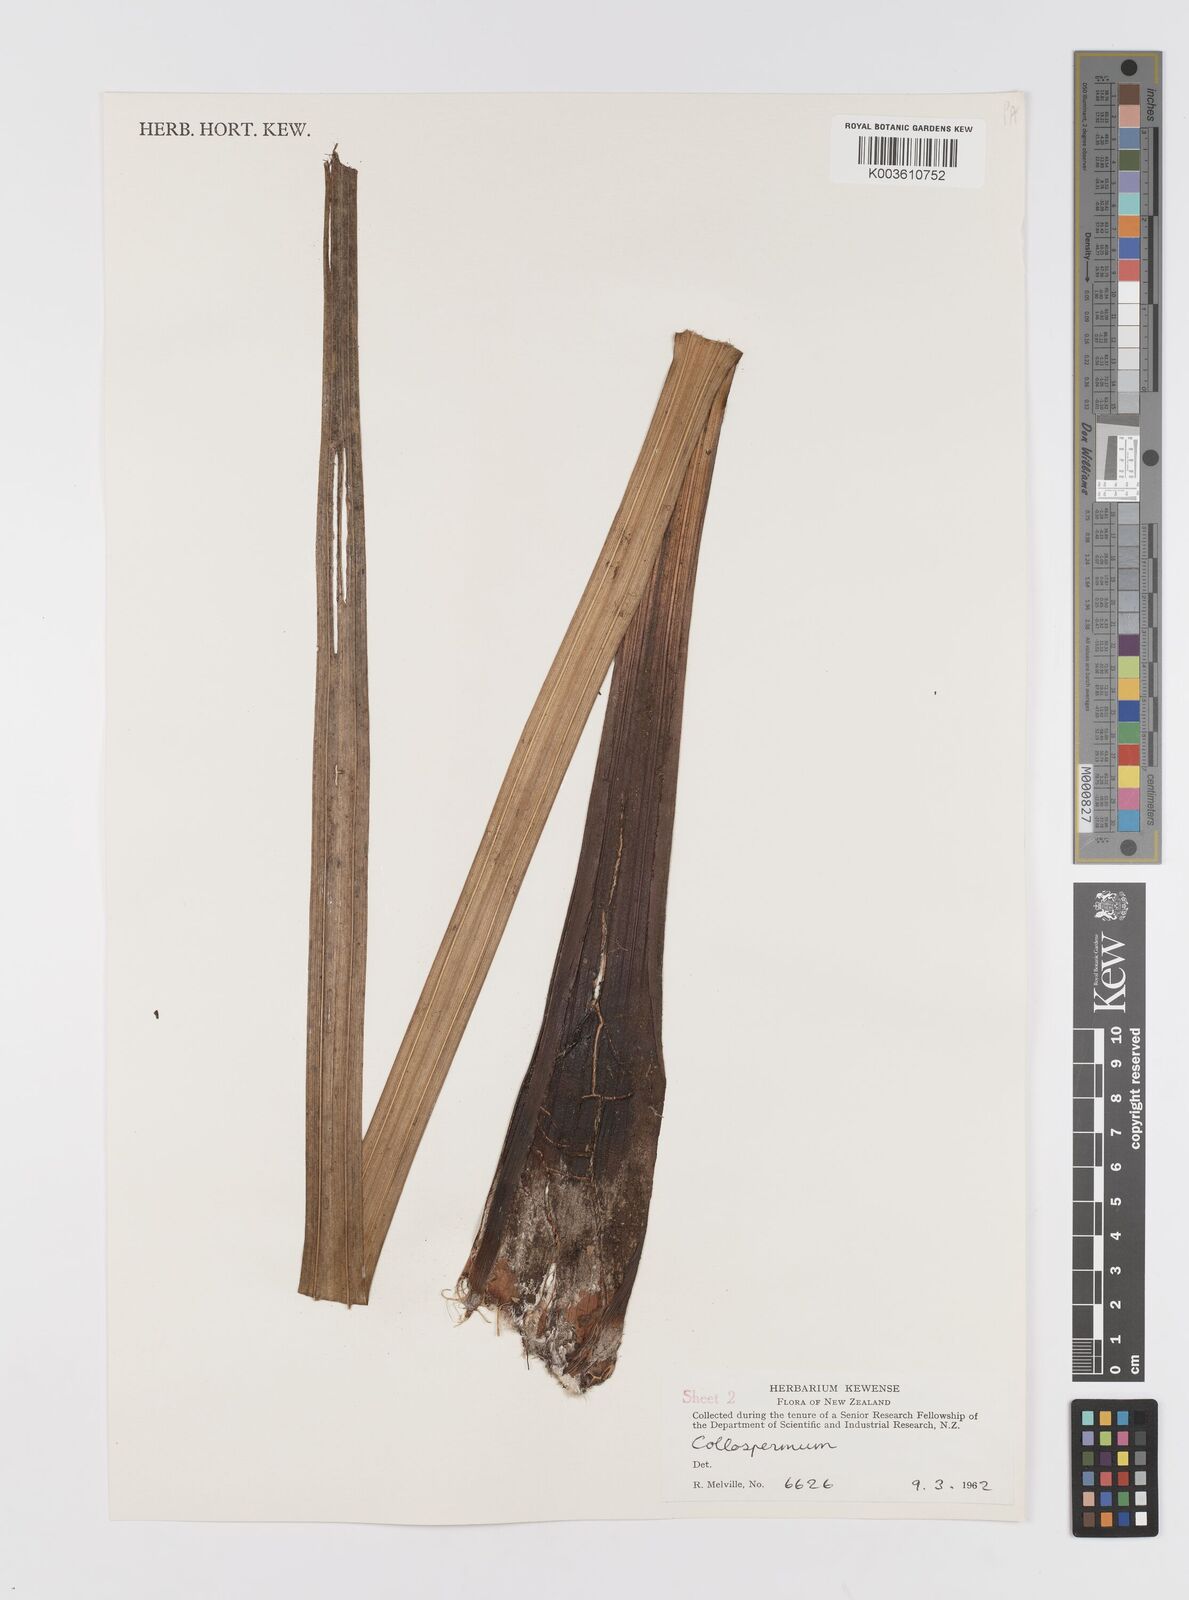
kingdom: Plantae
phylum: Tracheophyta
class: Liliopsida
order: Asparagales
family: Asteliaceae
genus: Astelia
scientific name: Astelia
